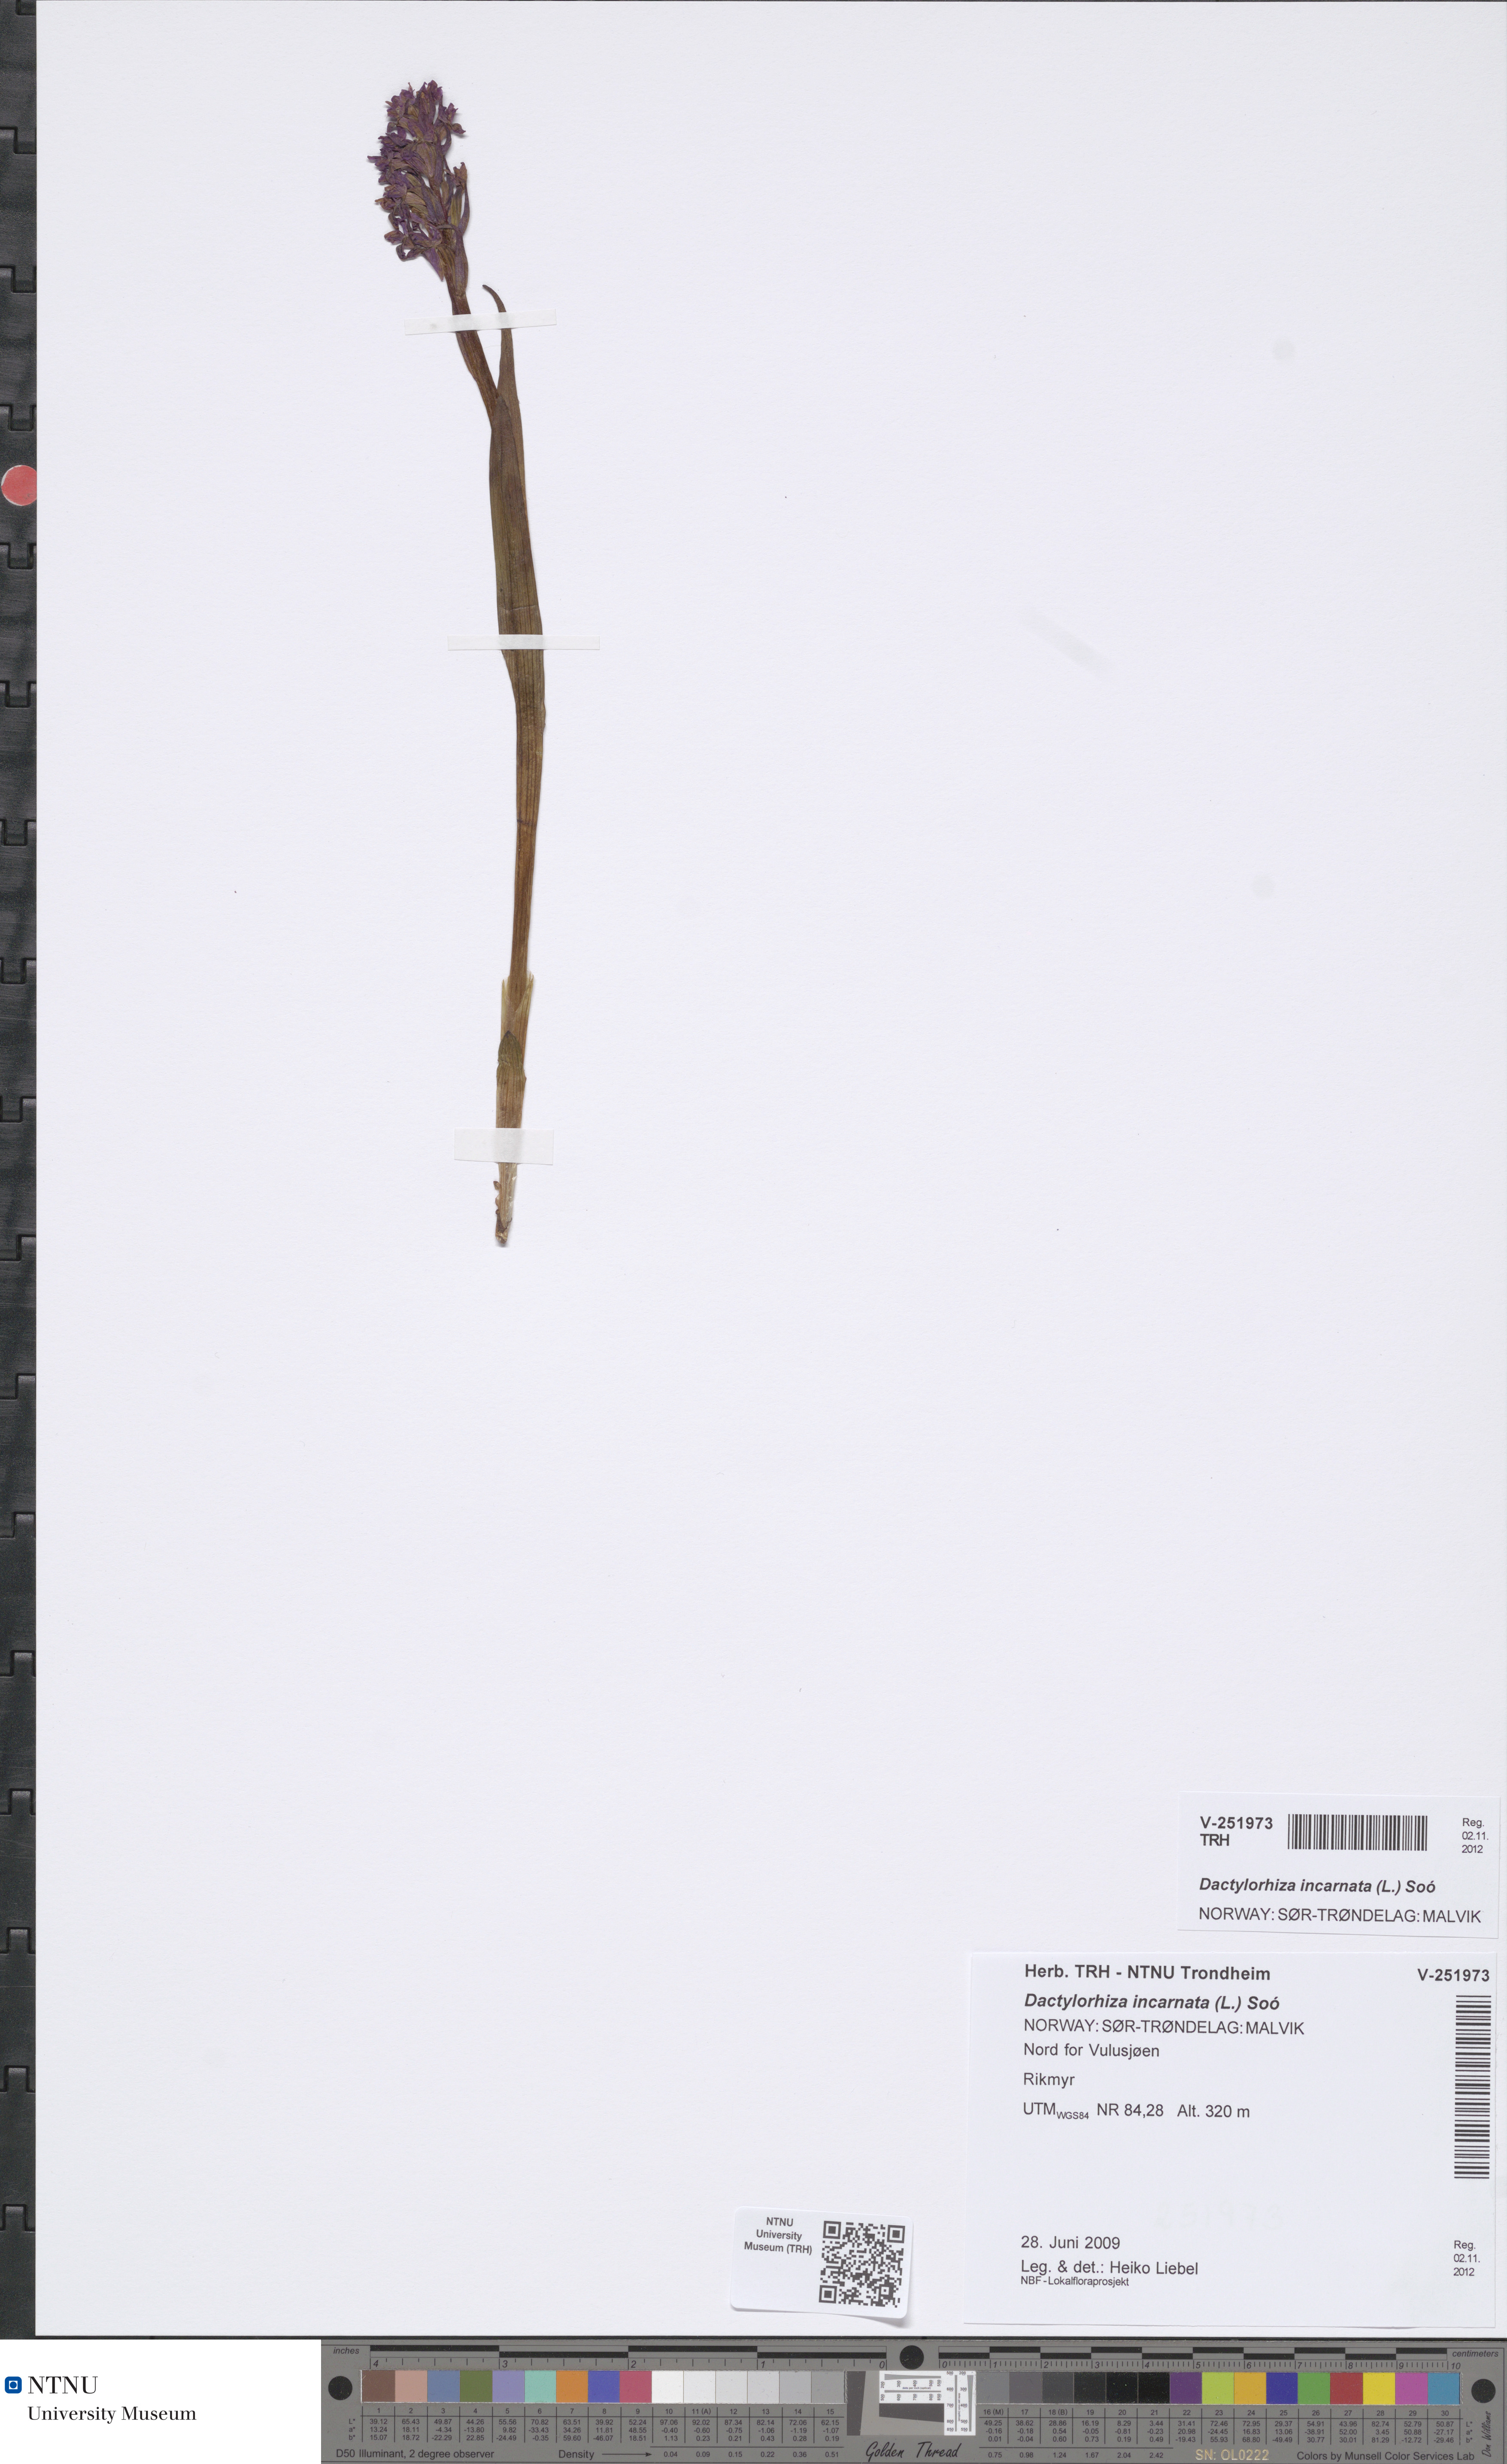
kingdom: Plantae
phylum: Tracheophyta
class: Liliopsida
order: Asparagales
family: Orchidaceae
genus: Dactylorhiza
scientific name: Dactylorhiza incarnata
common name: Early marsh-orchid
